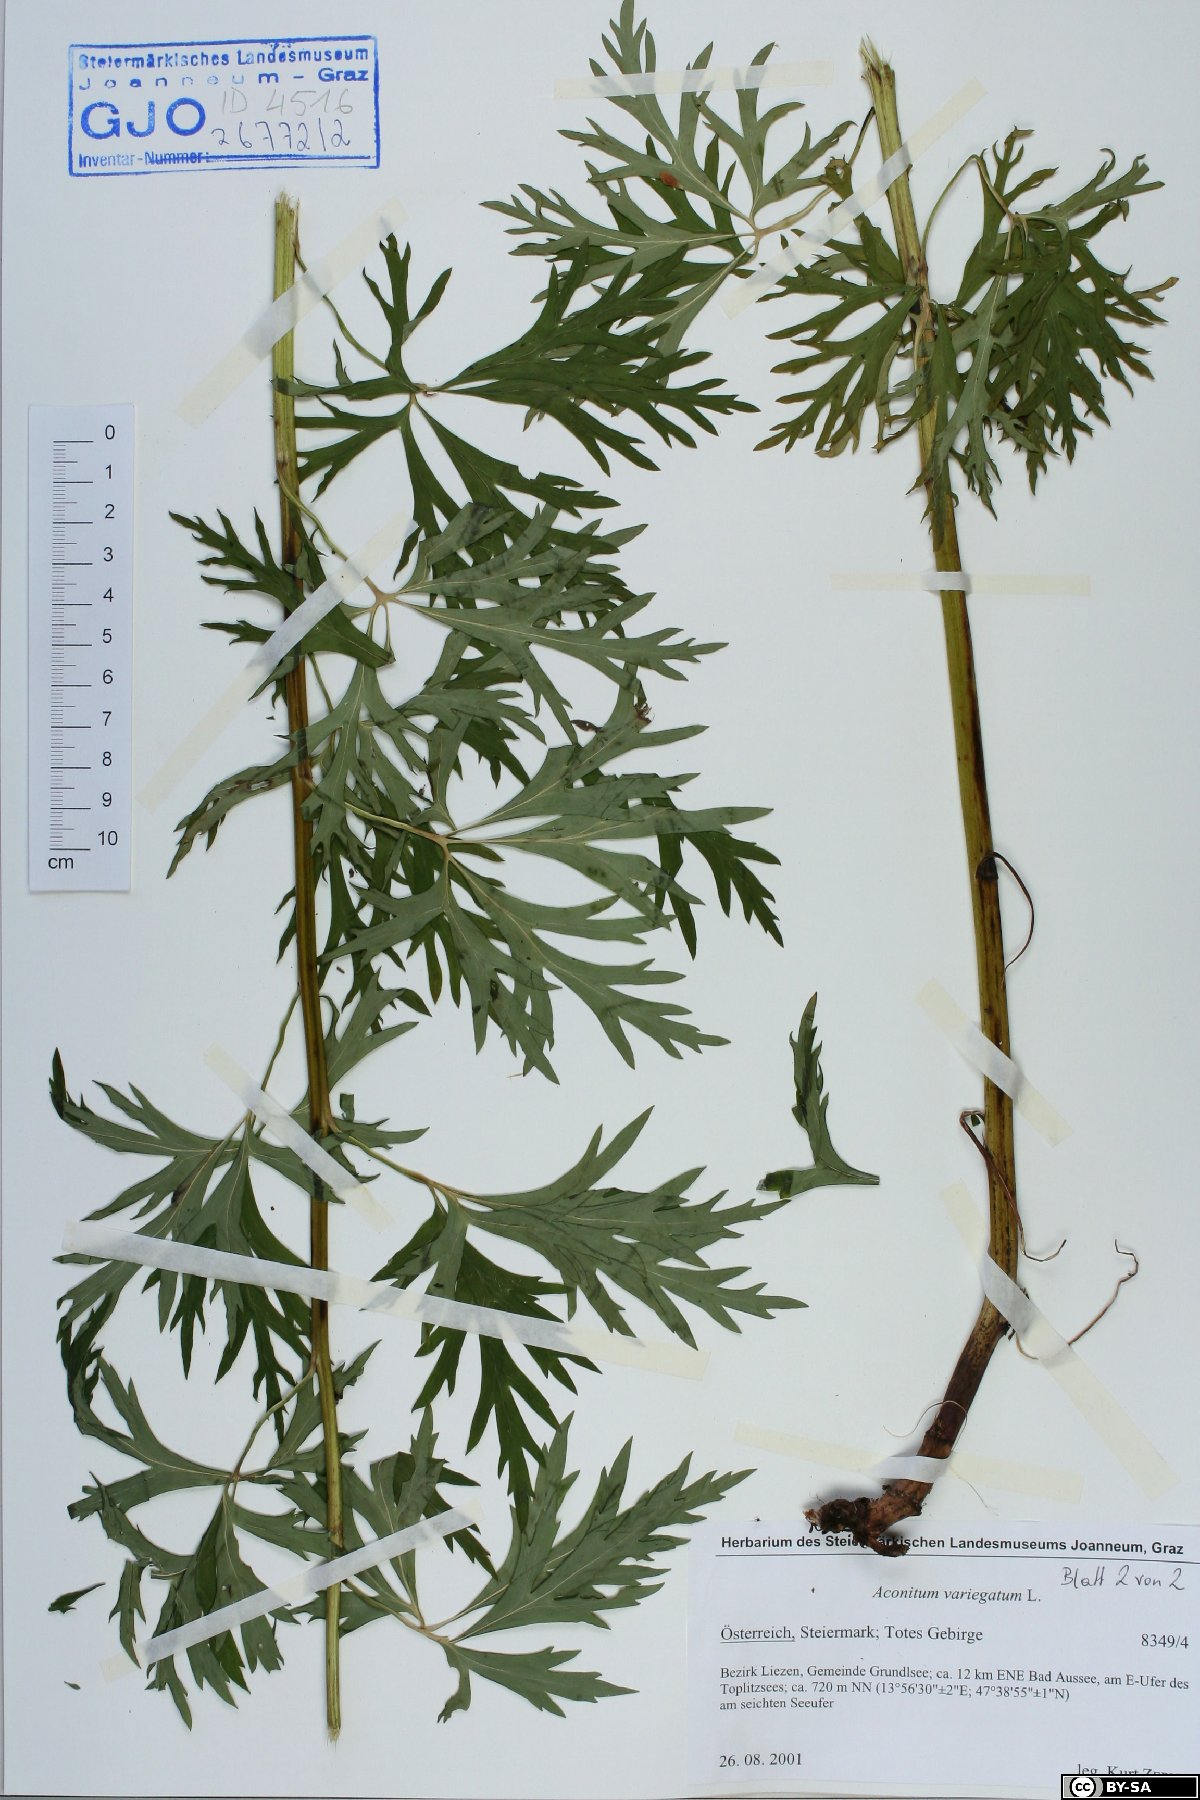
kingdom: Plantae
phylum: Tracheophyta
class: Magnoliopsida
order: Ranunculales
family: Ranunculaceae
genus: Aconitum
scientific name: Aconitum variegatum
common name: Manchurian monkshood
